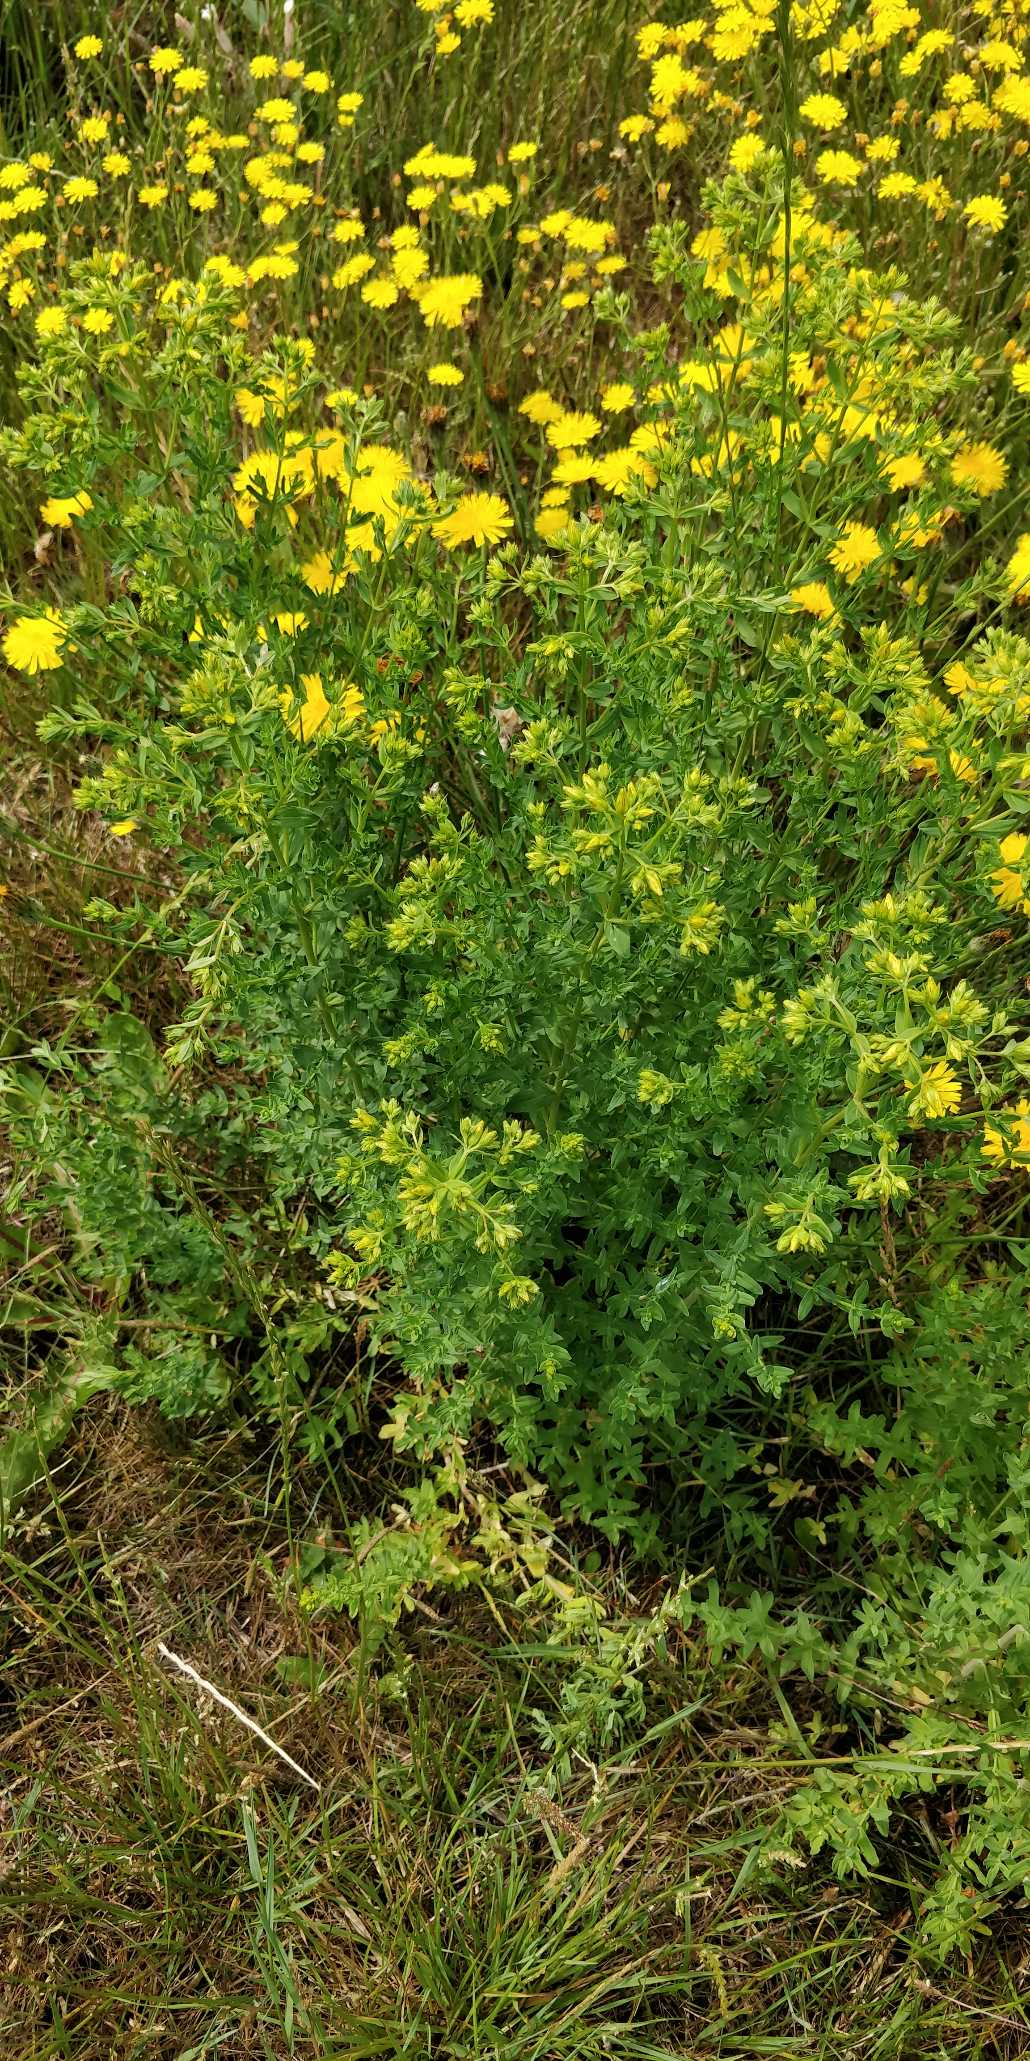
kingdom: Plantae
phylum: Tracheophyta
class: Magnoliopsida
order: Malpighiales
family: Hypericaceae
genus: Hypericum
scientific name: Hypericum perforatum
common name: Prikbladet perikon
